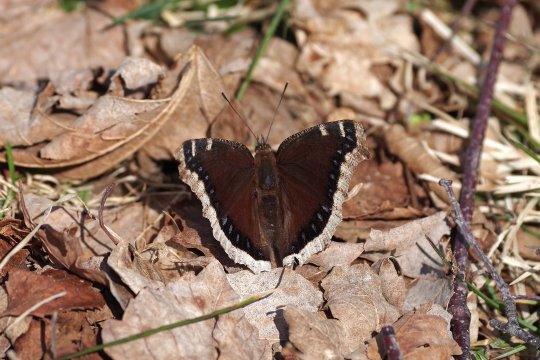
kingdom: Animalia
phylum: Arthropoda
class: Insecta
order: Lepidoptera
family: Nymphalidae
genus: Nymphalis
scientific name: Nymphalis antiopa
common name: Mourning Cloak
